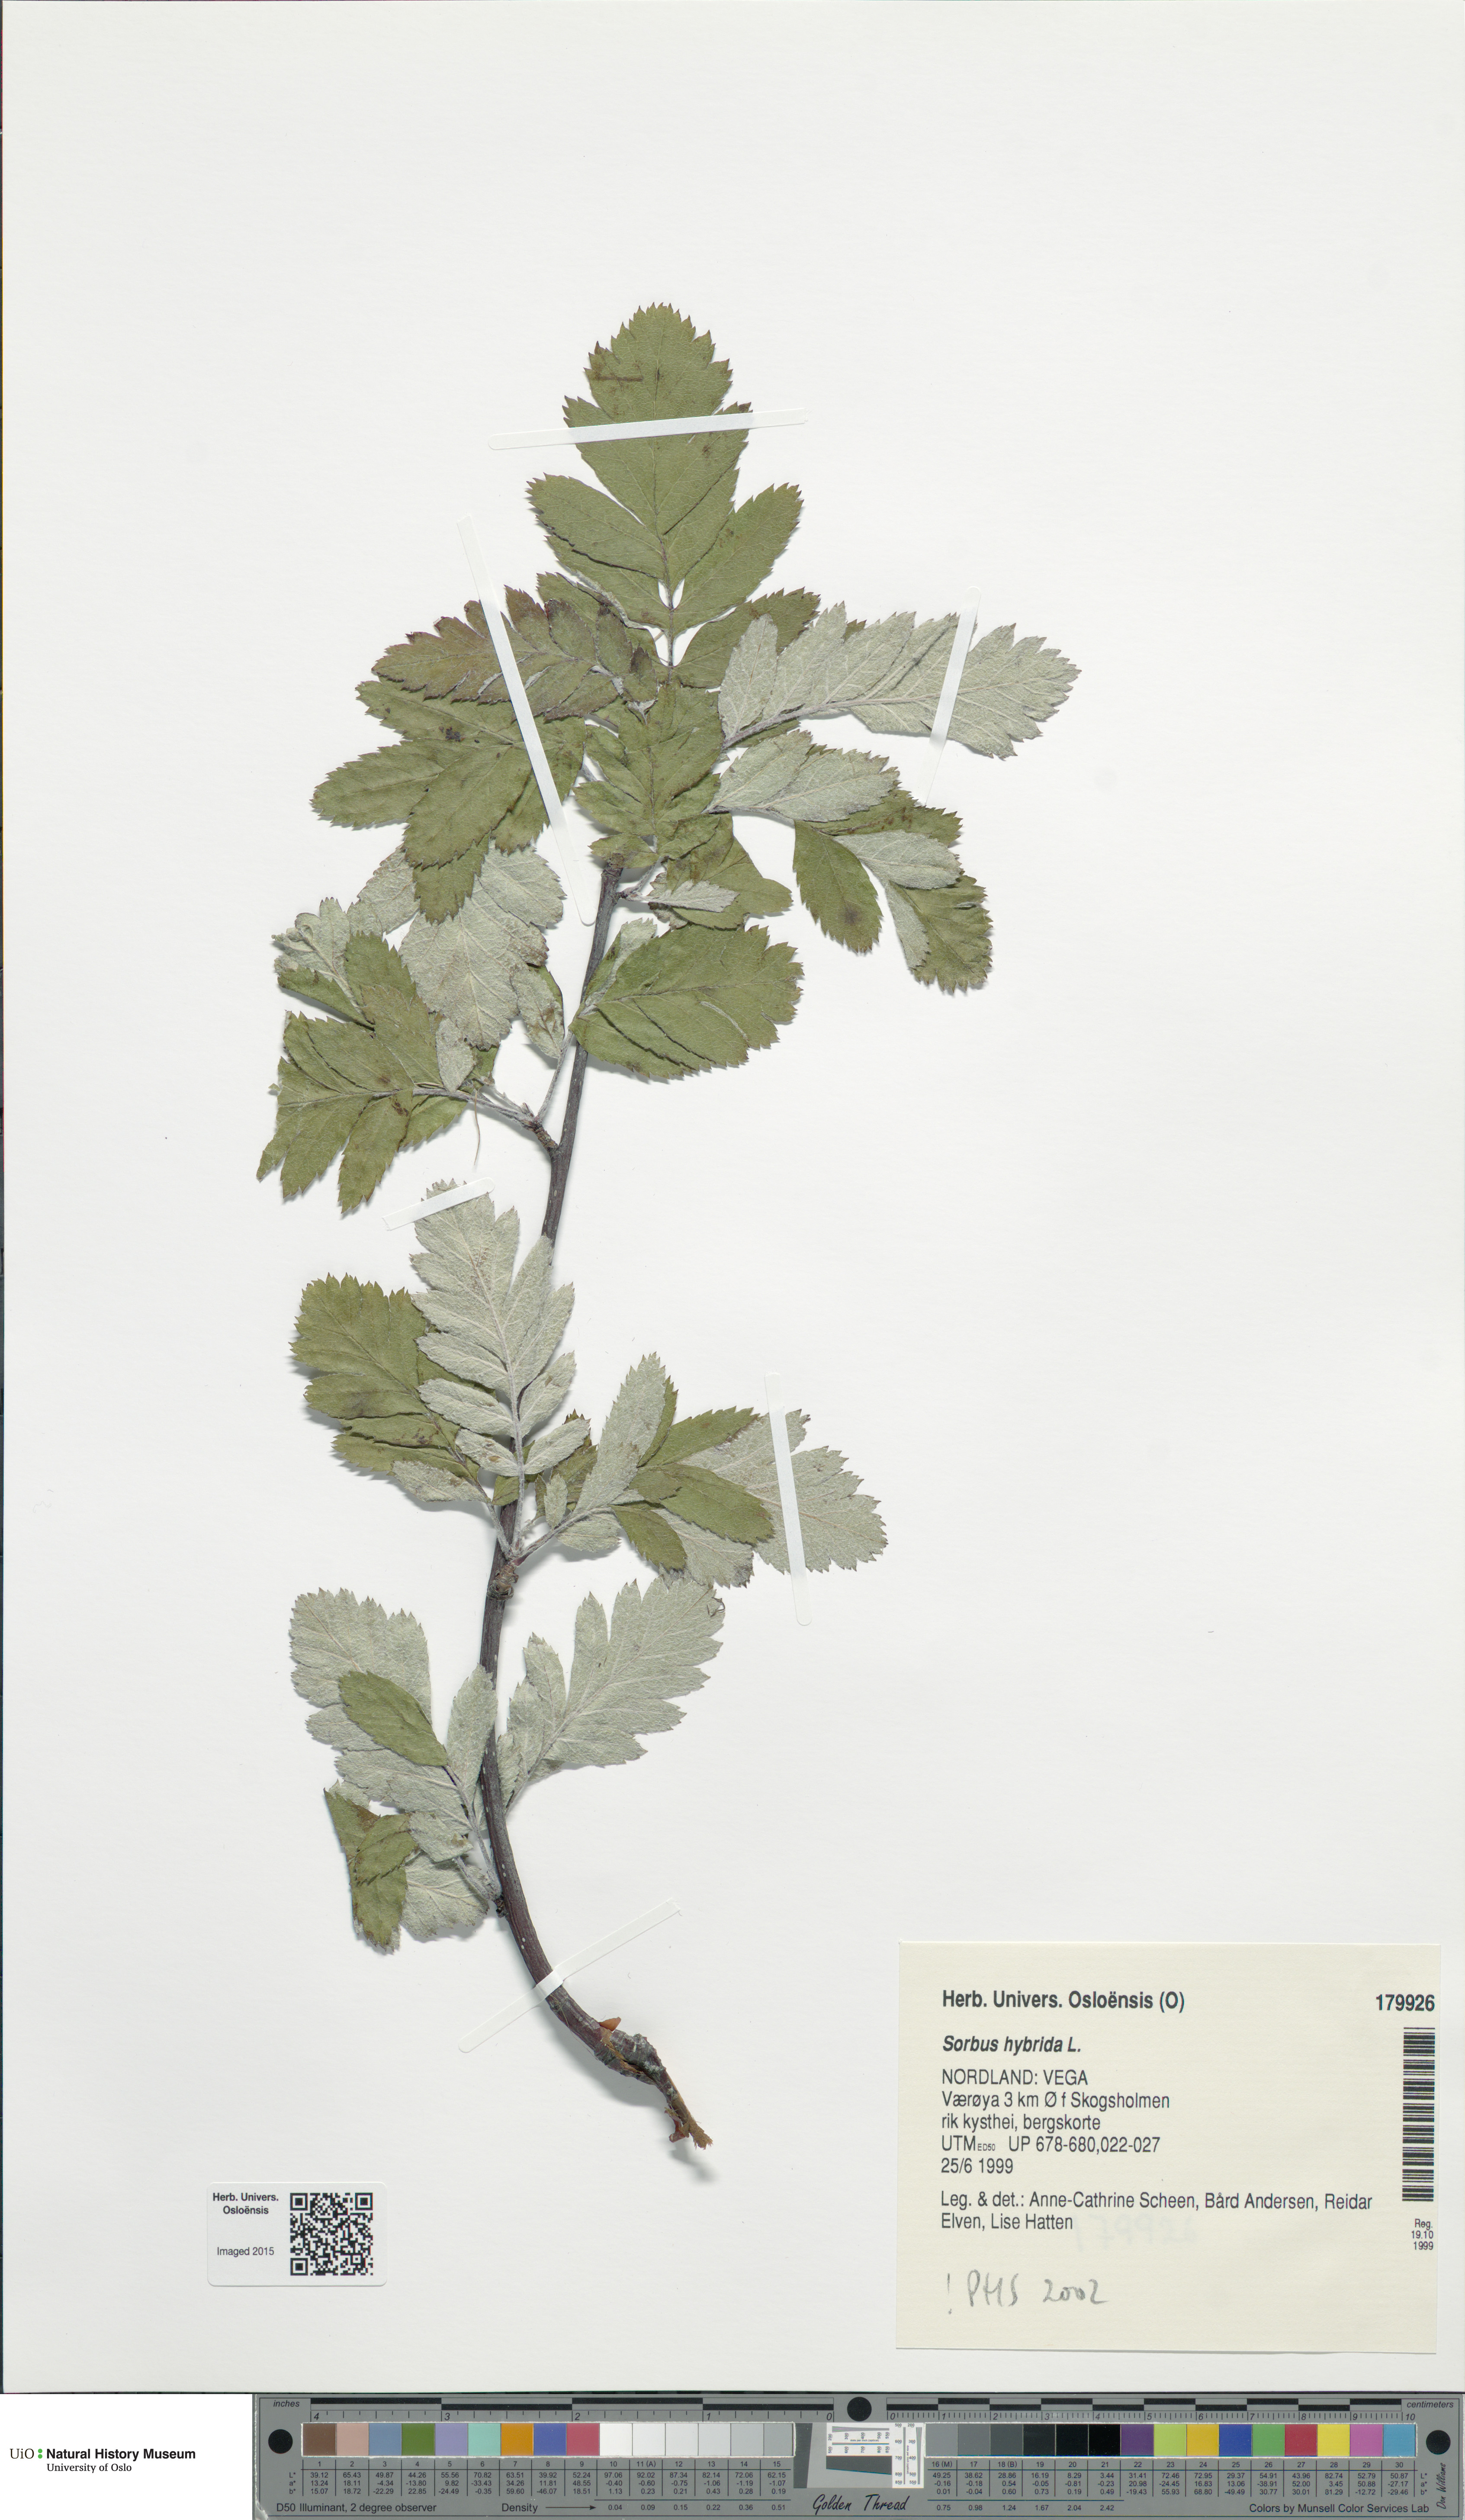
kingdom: Plantae
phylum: Tracheophyta
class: Magnoliopsida
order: Rosales
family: Rosaceae
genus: Hedlundia
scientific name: Hedlundia hybrida
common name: Swedish service-tree
